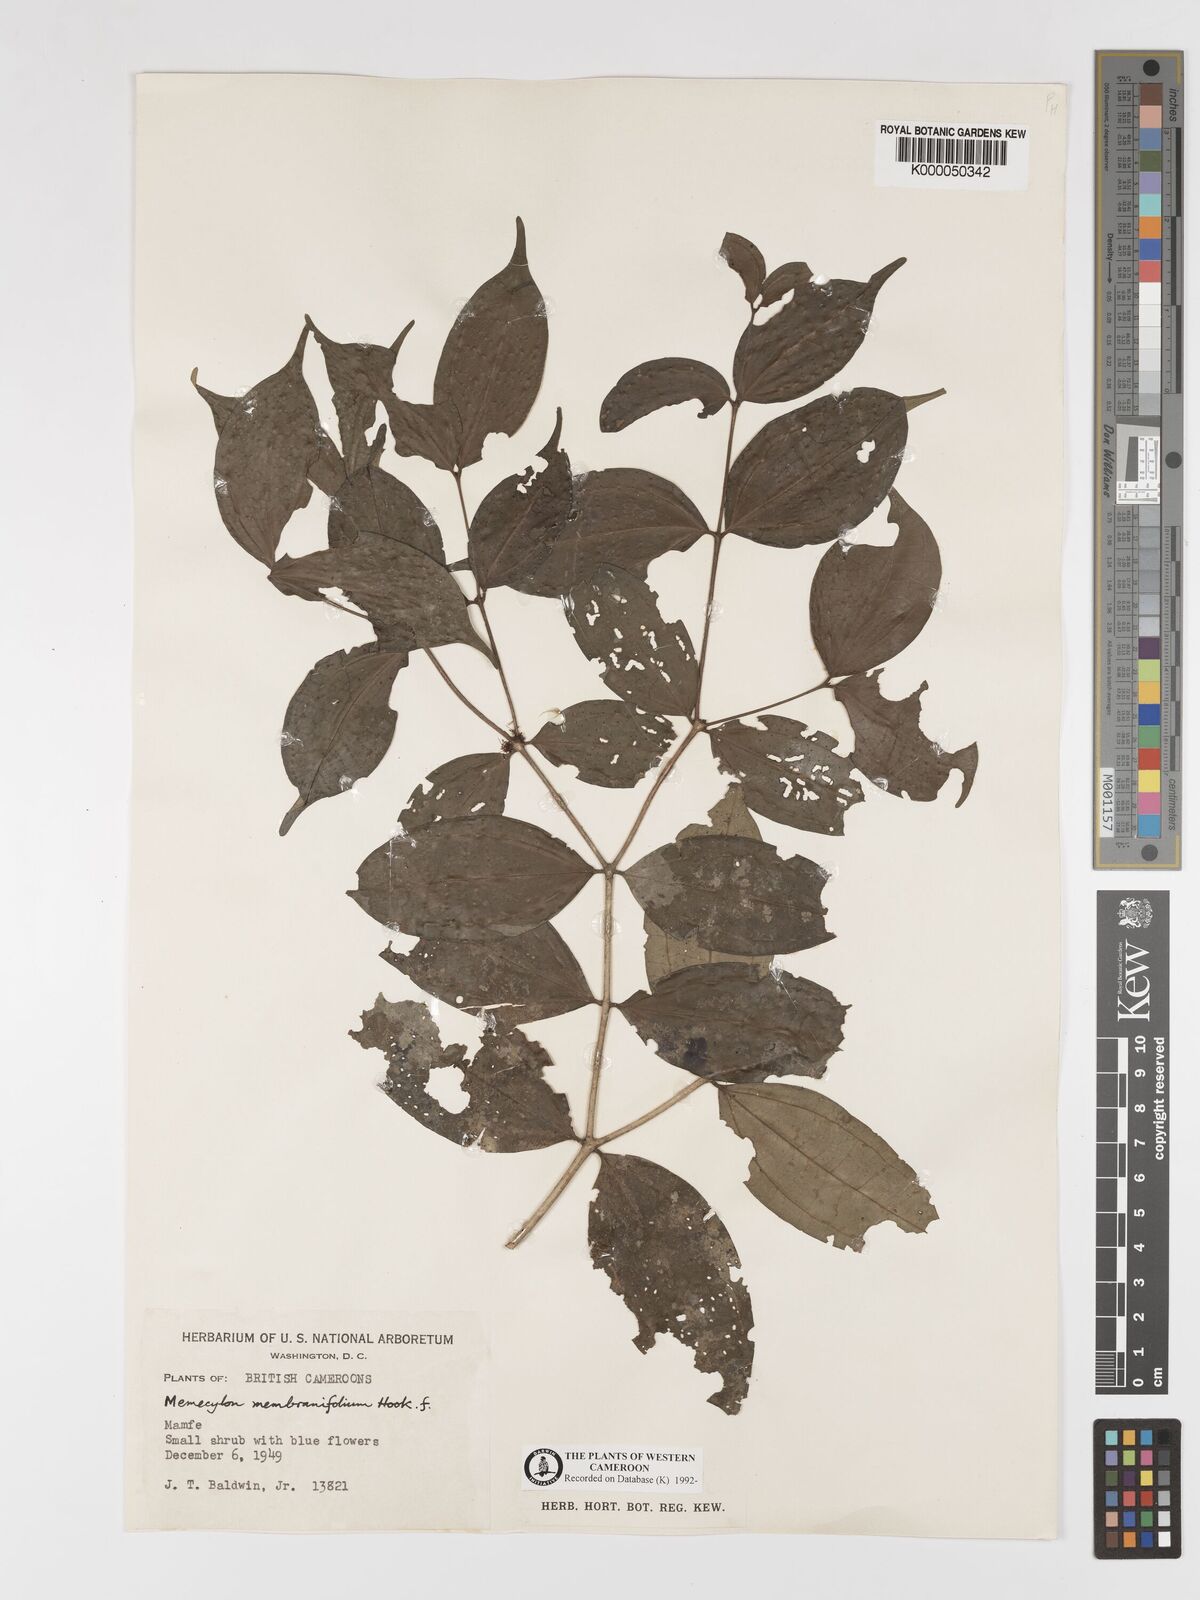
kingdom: Plantae
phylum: Tracheophyta
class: Magnoliopsida
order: Myrtales
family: Melastomataceae
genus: Warneckea
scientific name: Warneckea
